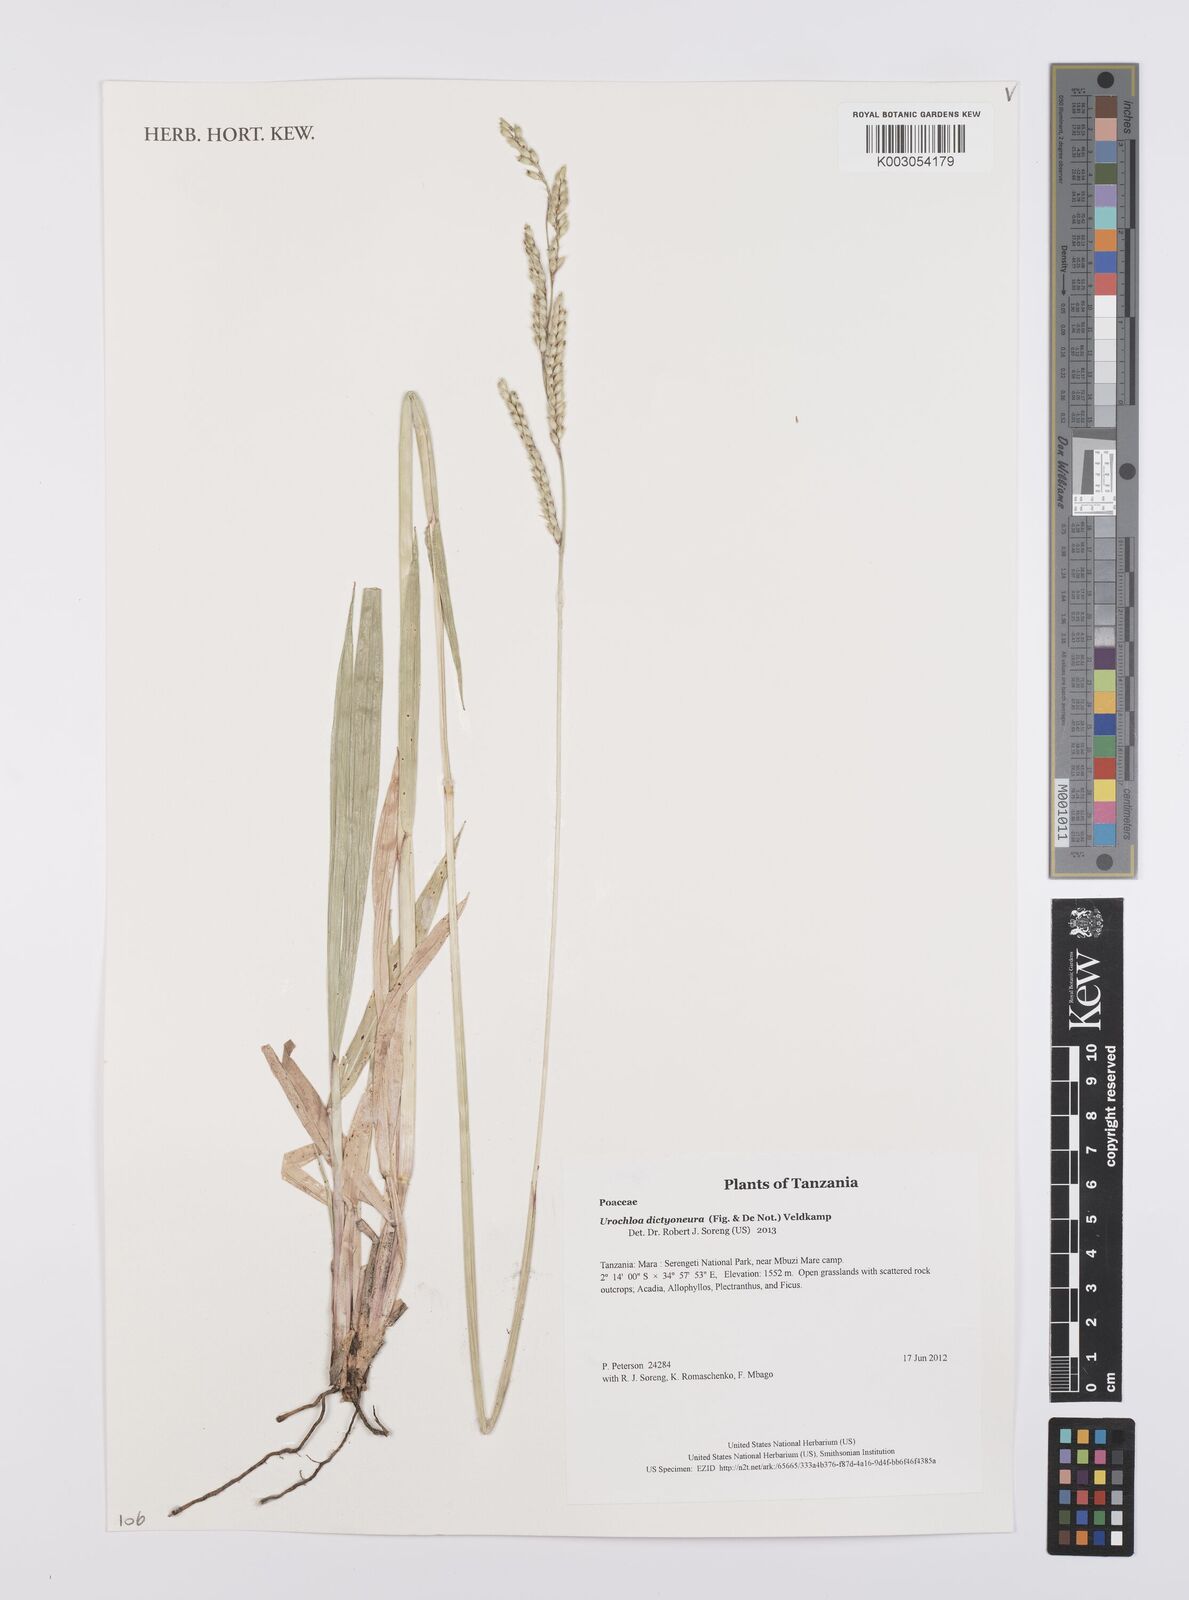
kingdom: Plantae
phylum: Tracheophyta
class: Liliopsida
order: Poales
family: Poaceae
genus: Urochloa
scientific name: Urochloa dictyoneura
